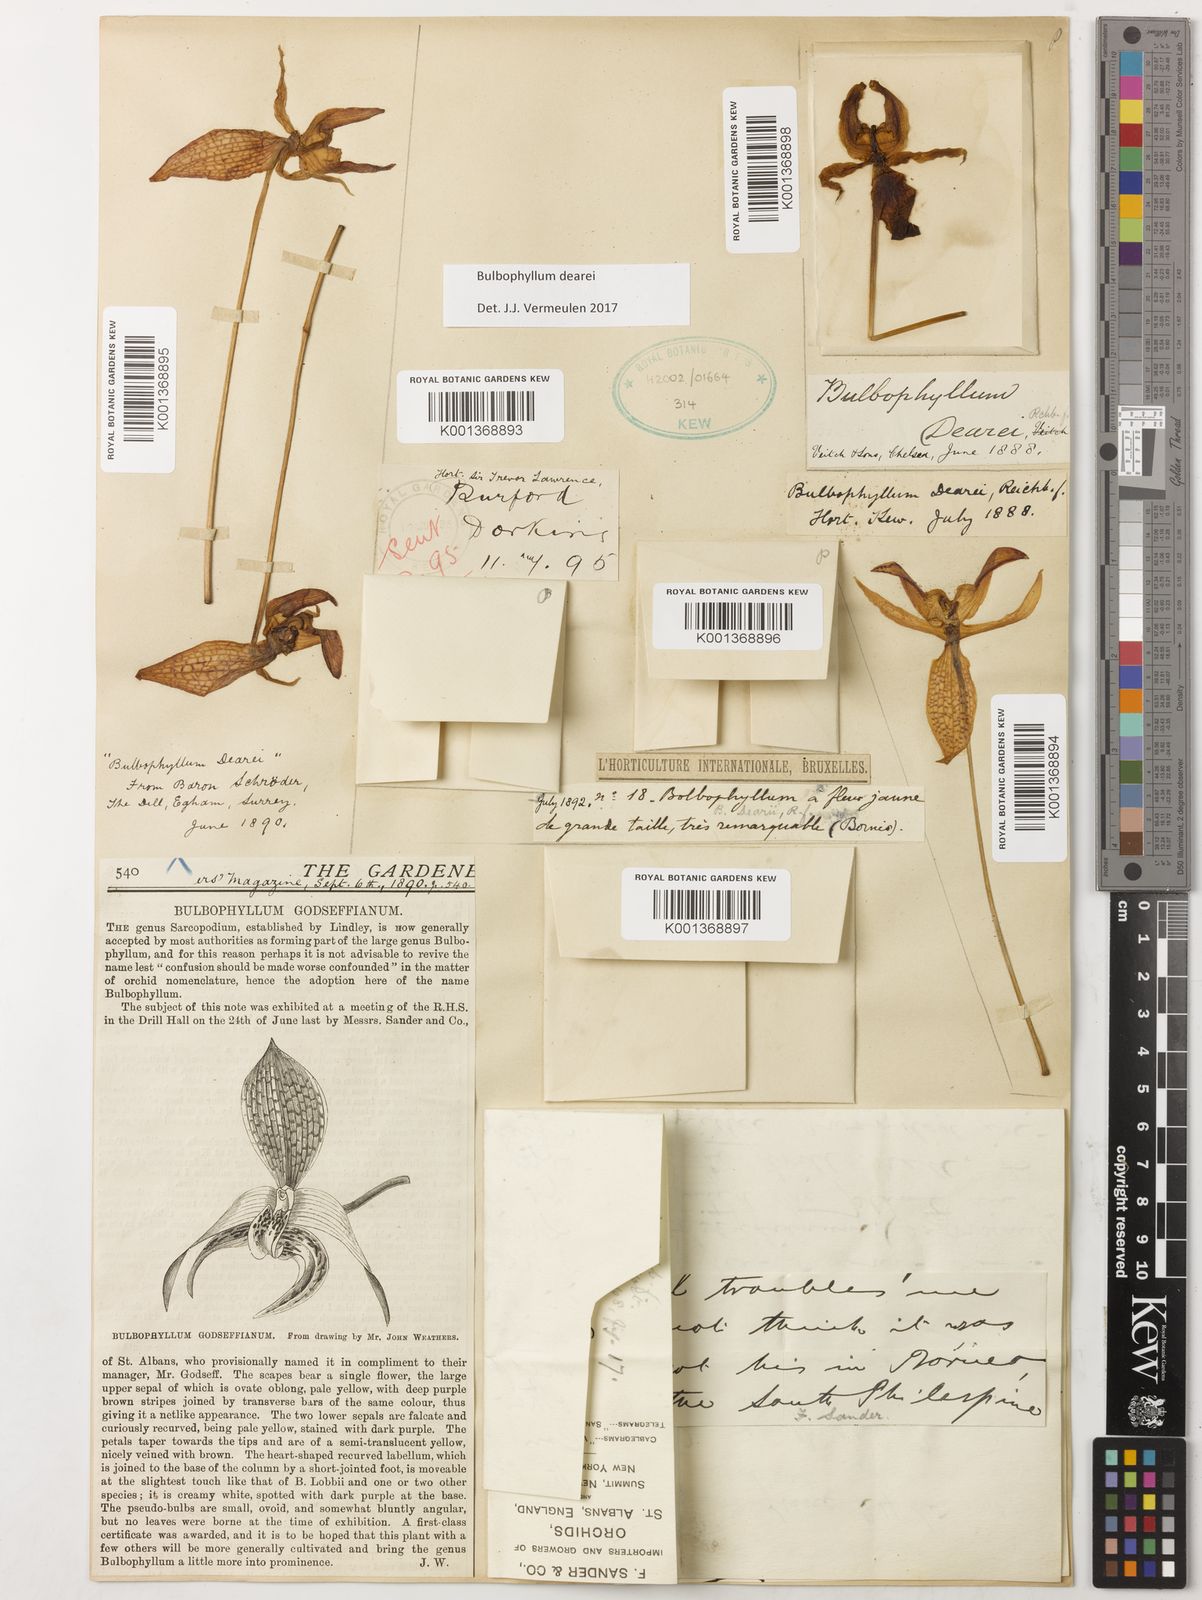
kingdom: Plantae
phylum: Tracheophyta
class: Liliopsida
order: Asparagales
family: Orchidaceae
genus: Bulbophyllum
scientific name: Bulbophyllum dearei
